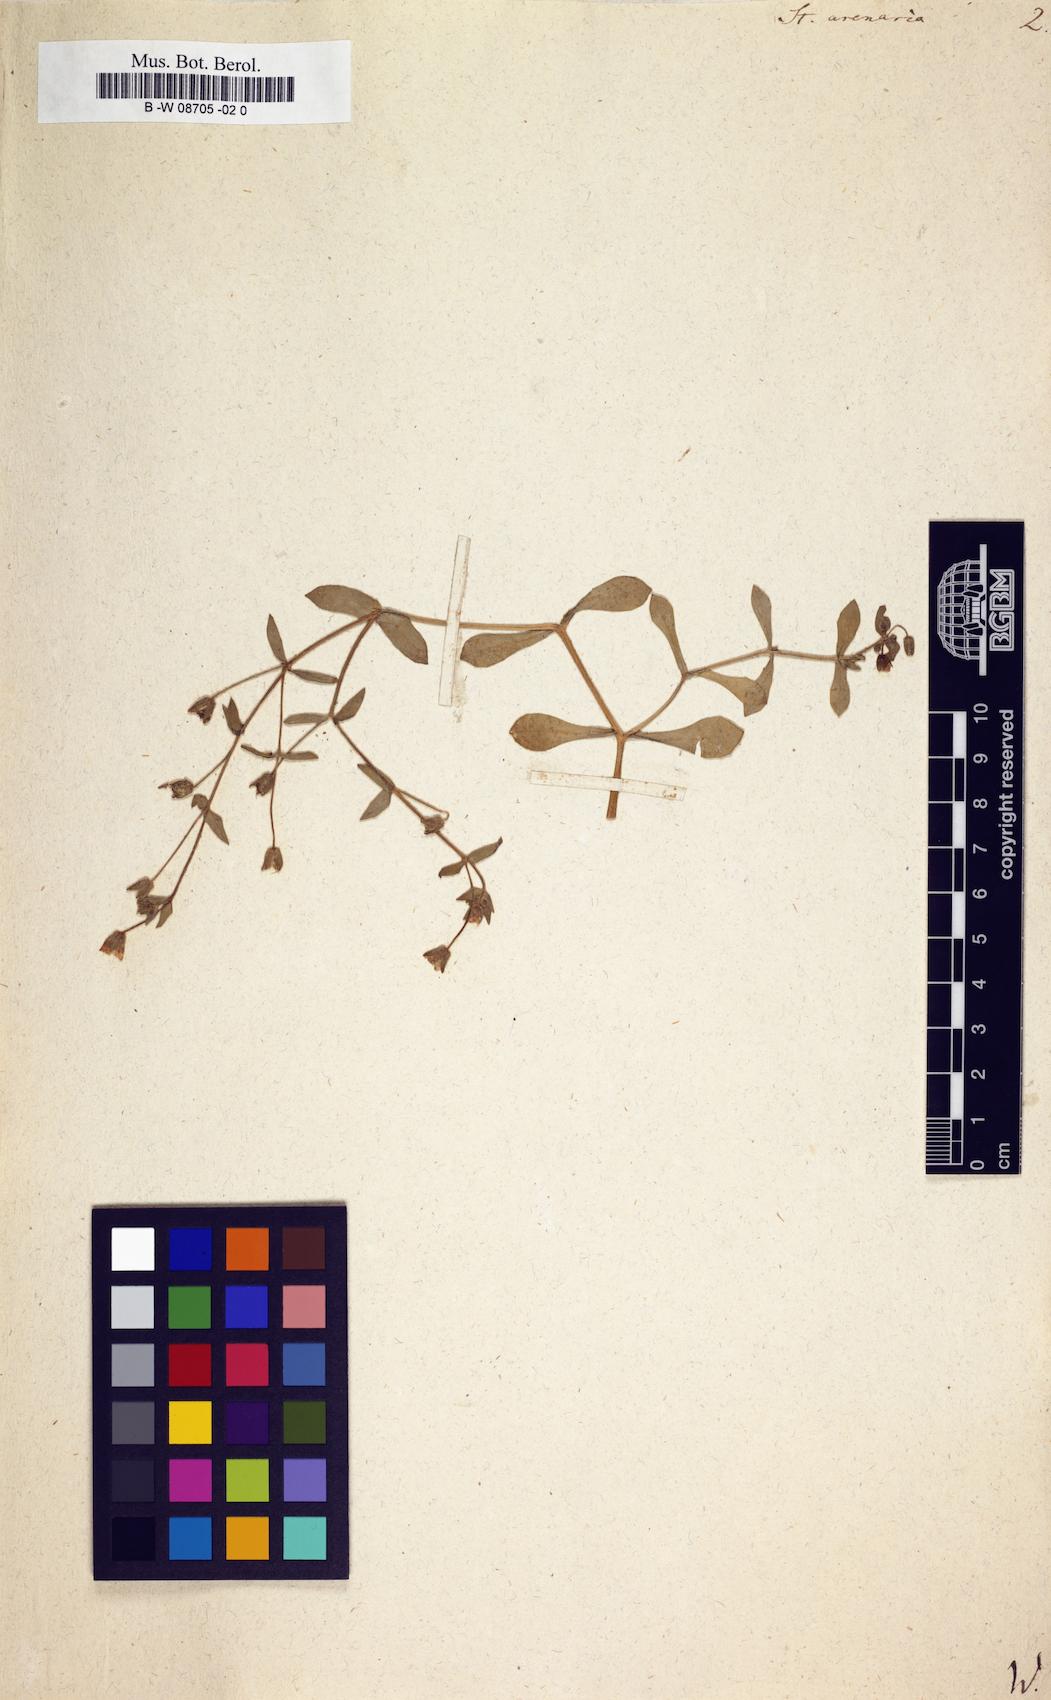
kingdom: Plantae
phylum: Tracheophyta
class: Magnoliopsida
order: Caryophyllales
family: Caryophyllaceae
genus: Stellaria
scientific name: Stellaria arenarioides
